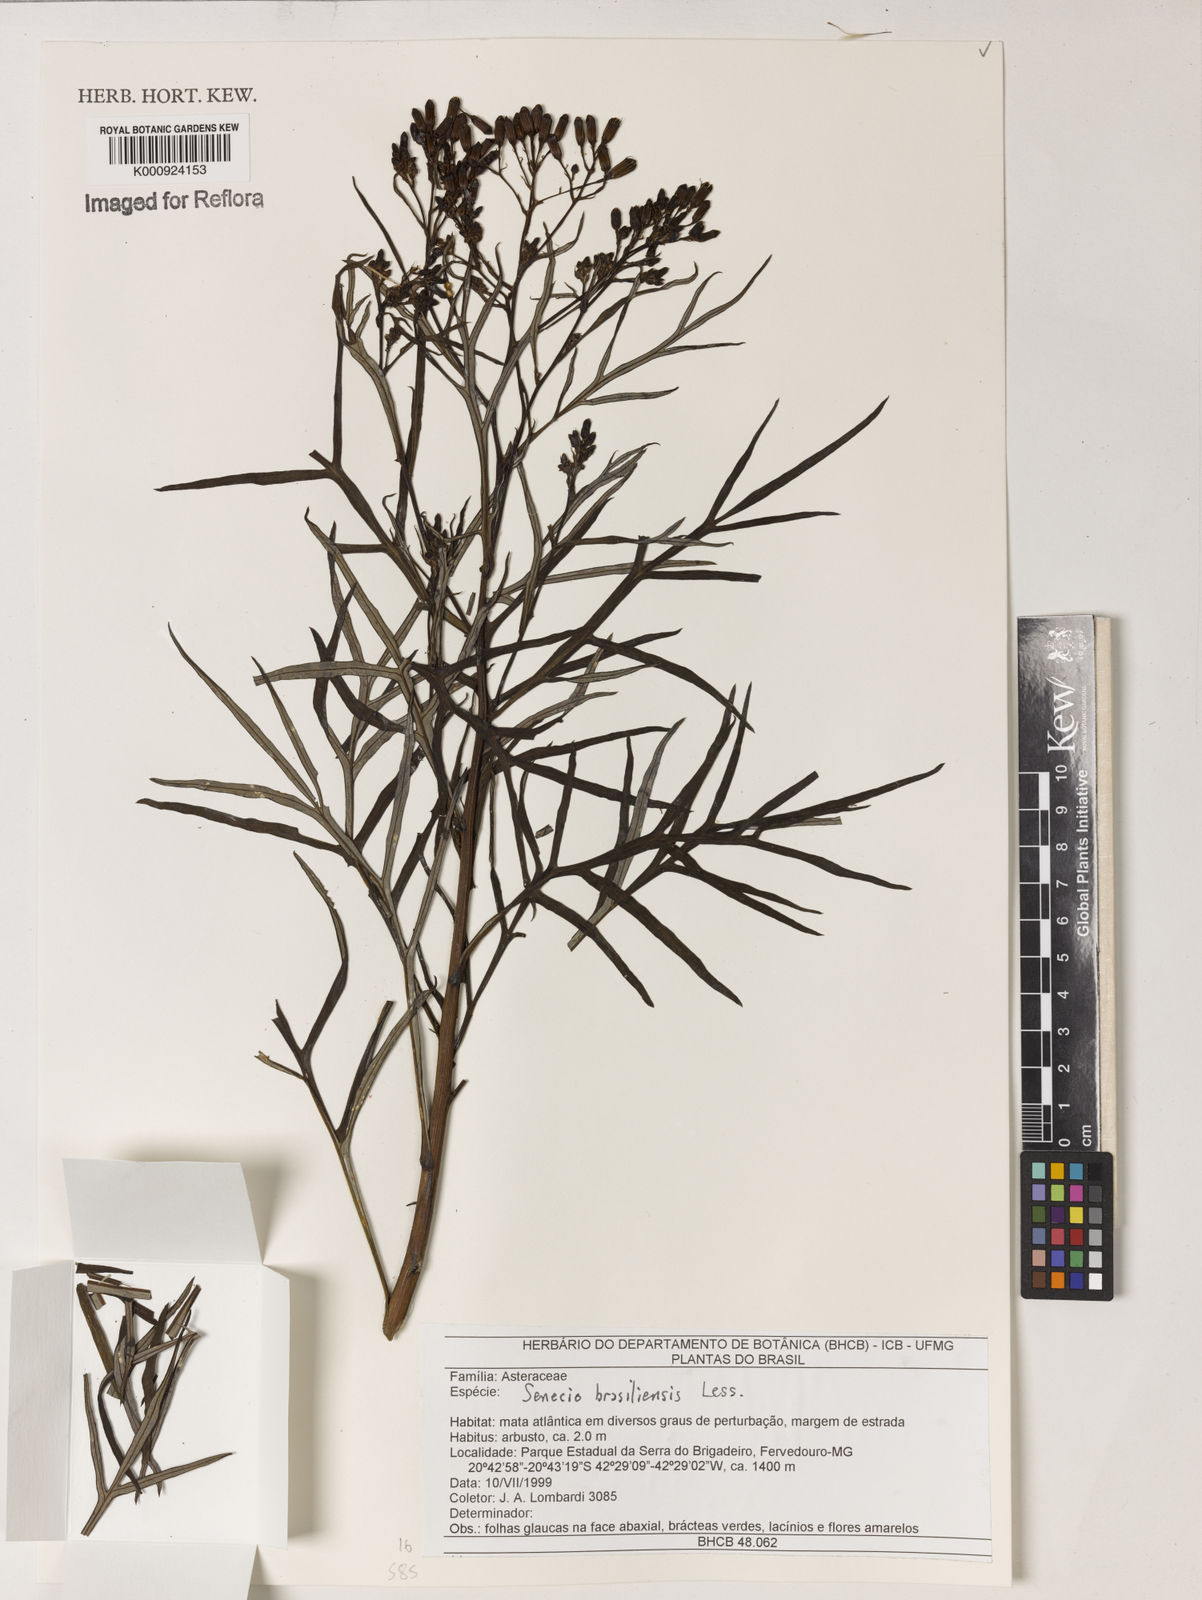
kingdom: Plantae
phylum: Tracheophyta
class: Magnoliopsida
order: Asterales
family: Asteraceae
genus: Senecio
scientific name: Senecio brasiliensis
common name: Hemp-leaf ragwort
